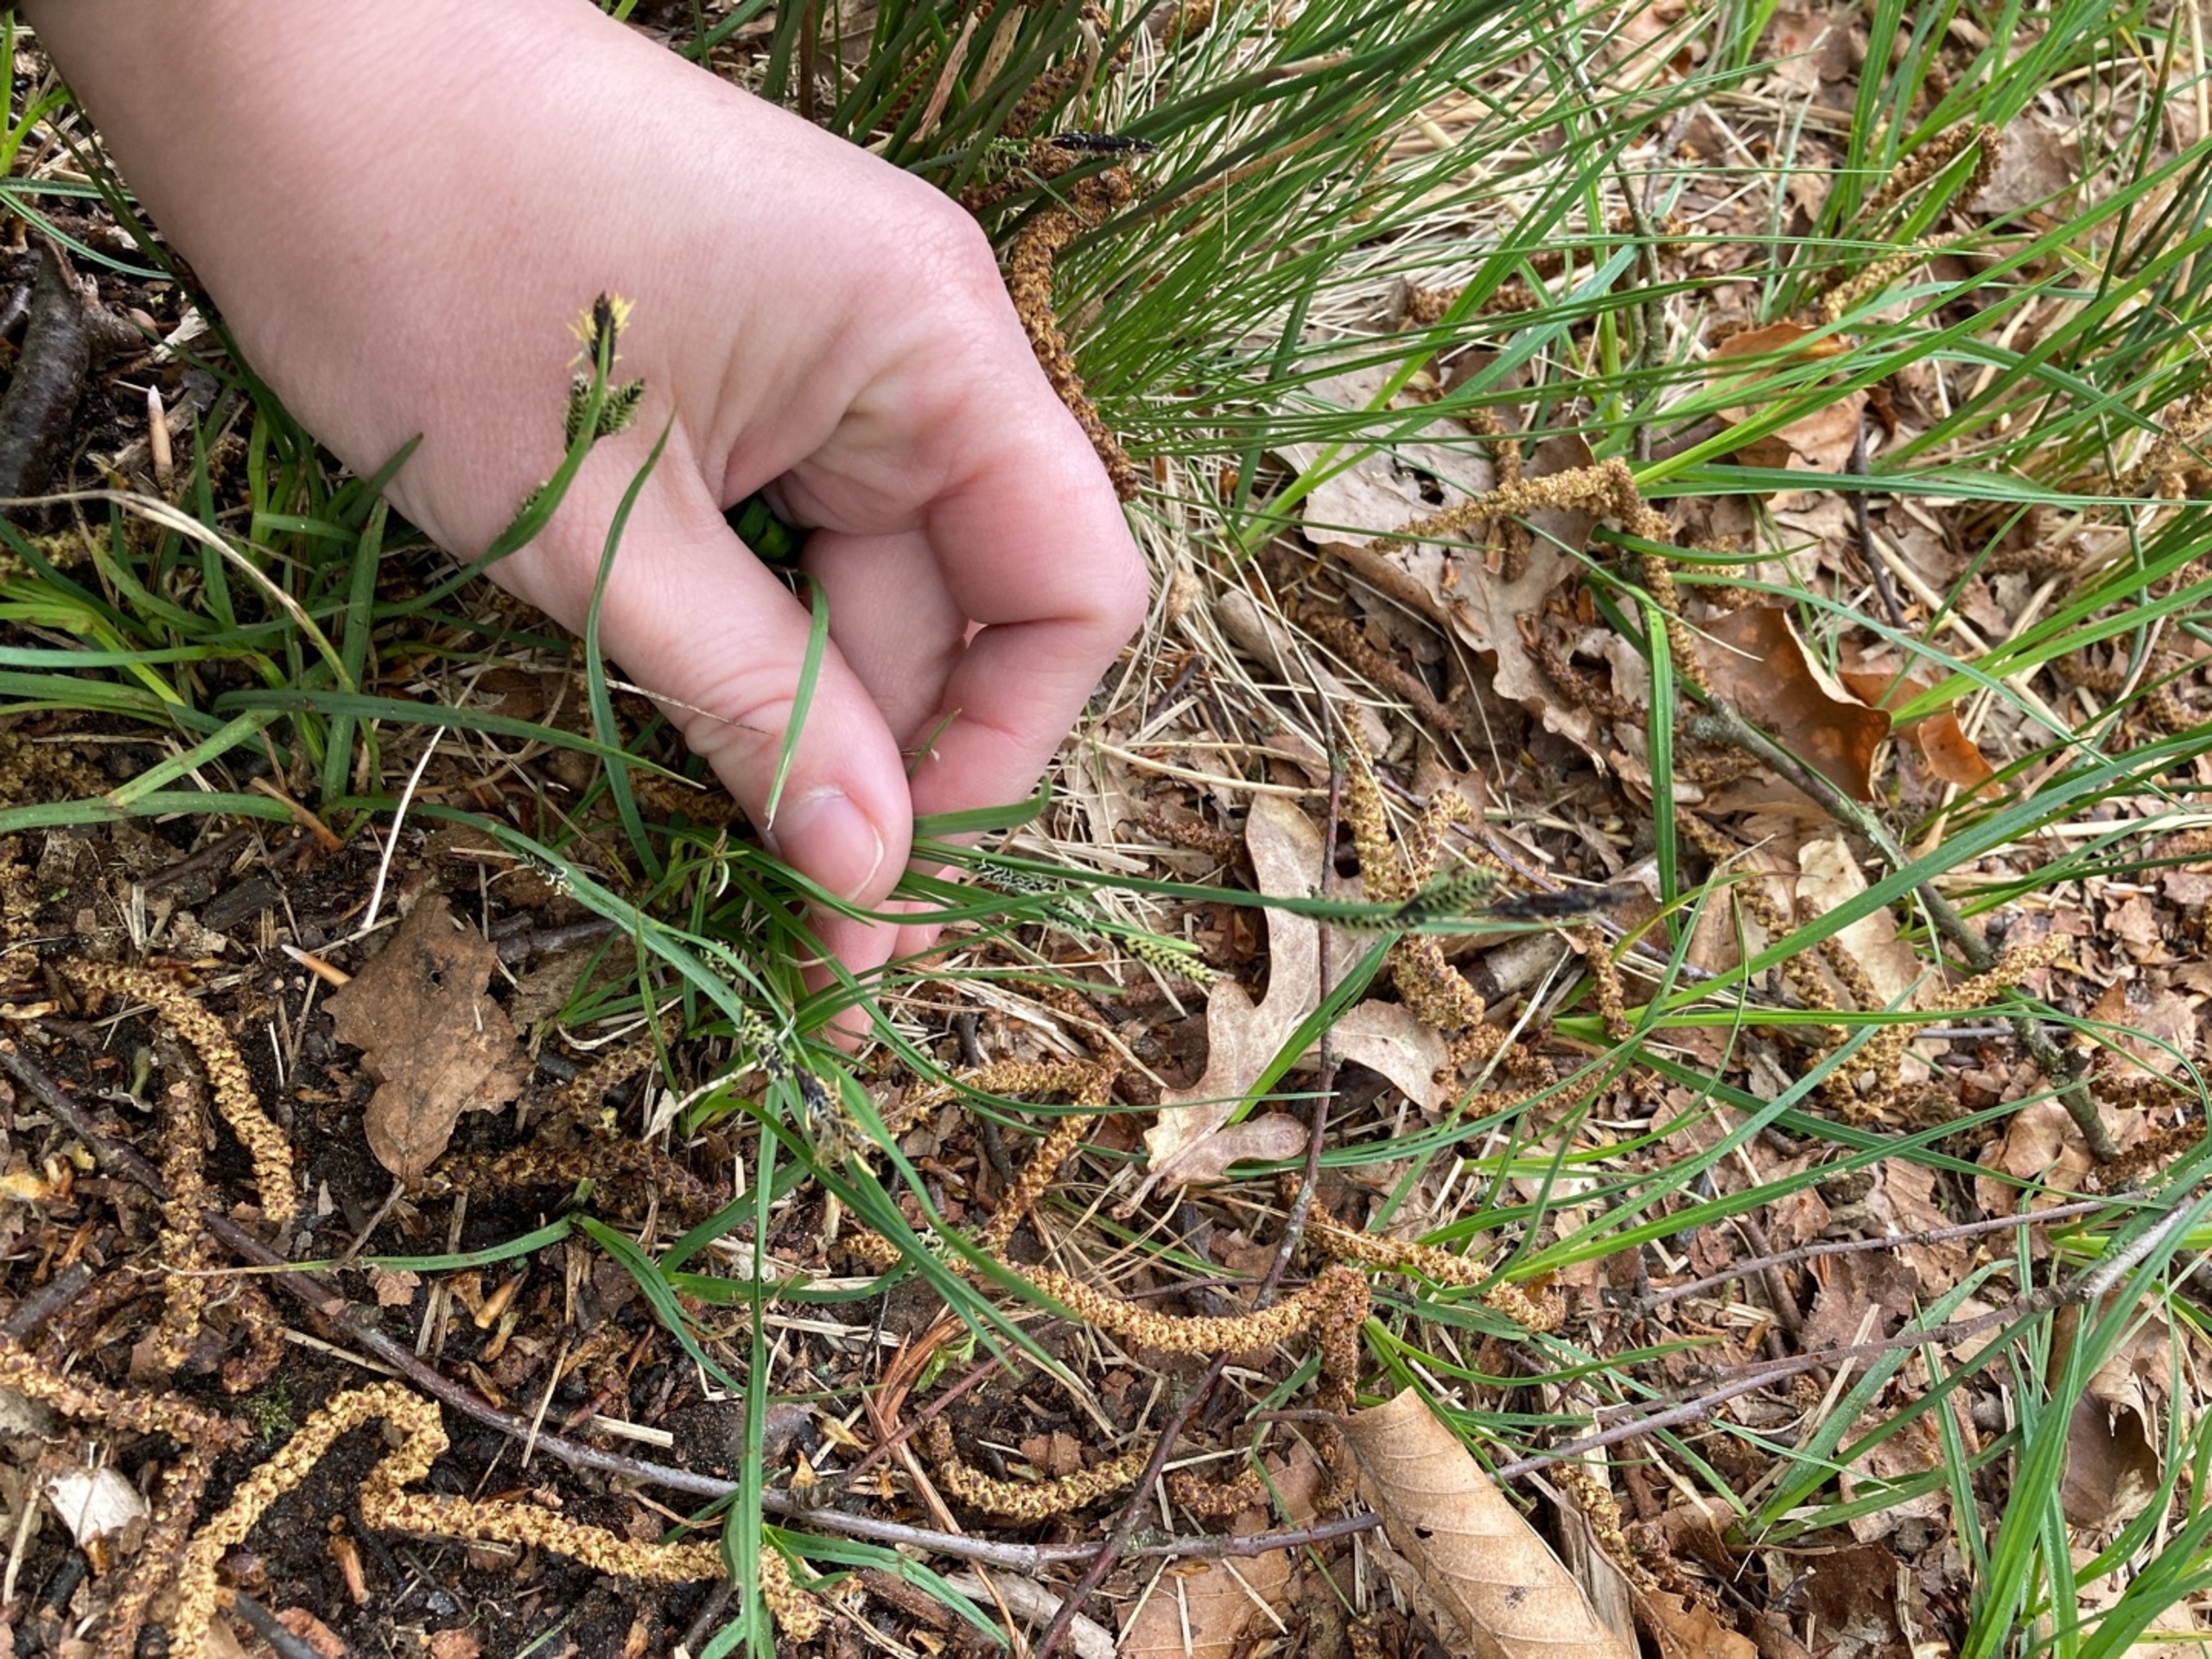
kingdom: Plantae
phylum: Tracheophyta
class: Liliopsida
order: Poales
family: Cyperaceae
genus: Carex
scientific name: Carex nigra
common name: Almindelig star
